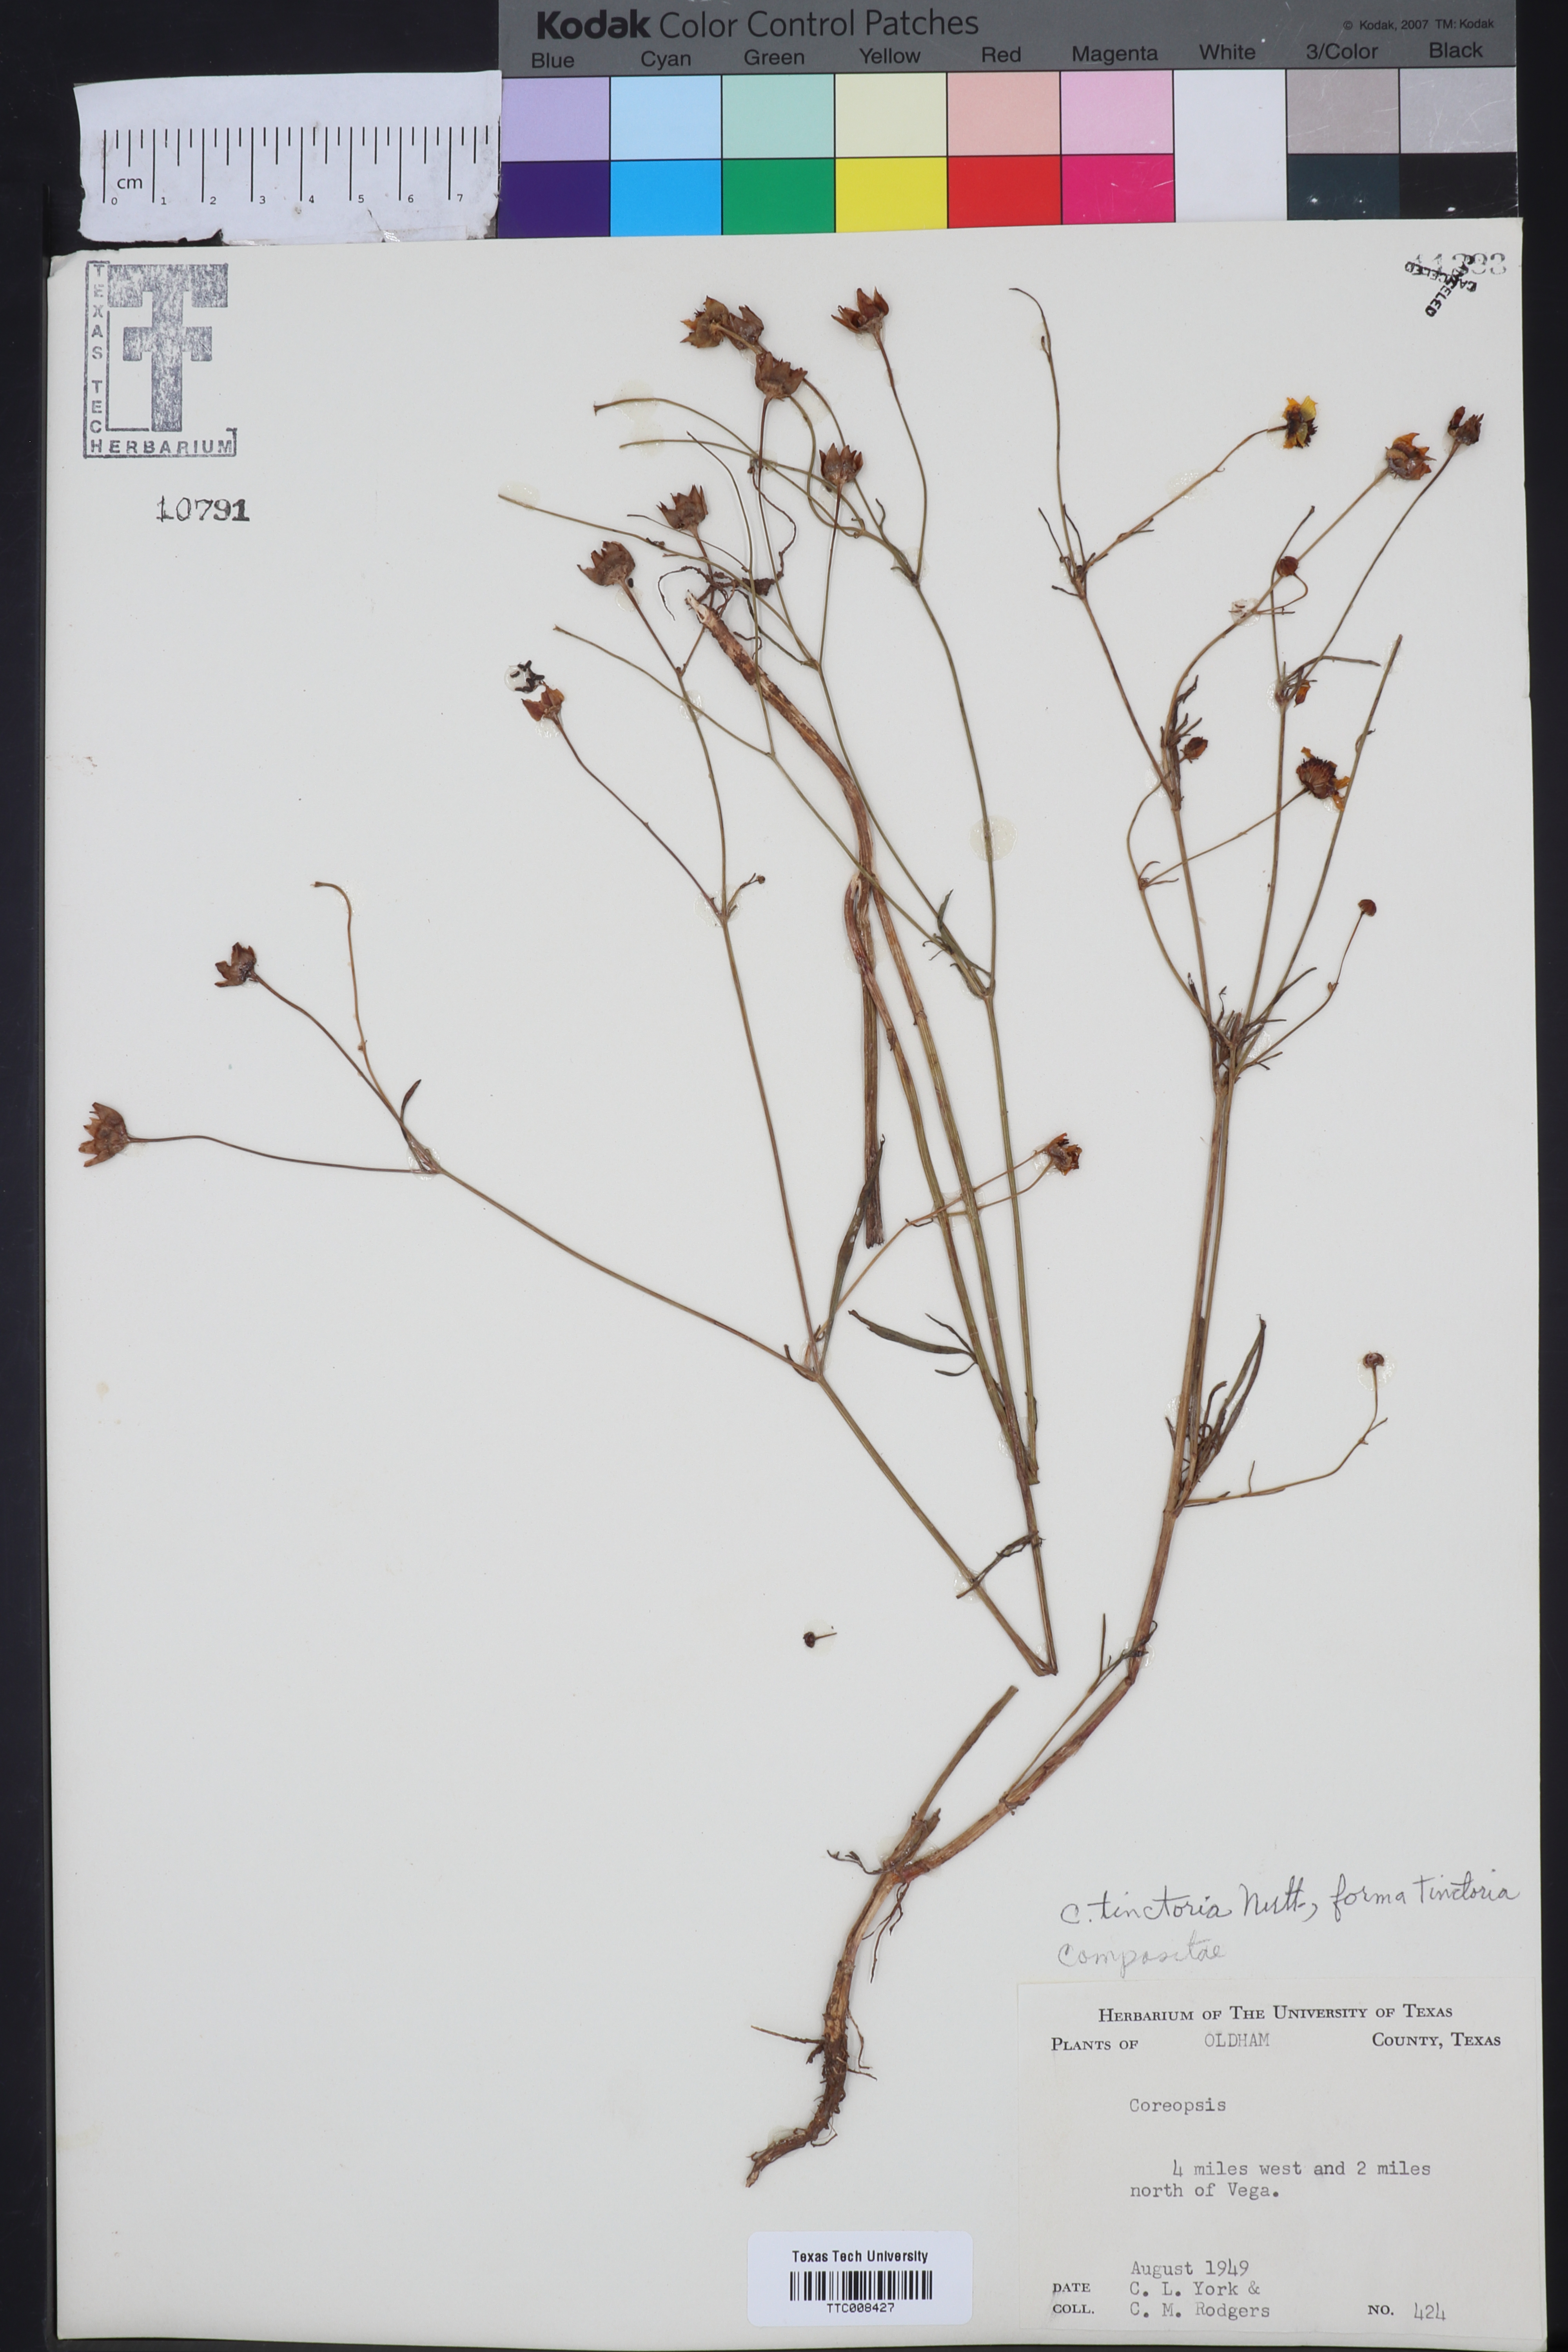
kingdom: Plantae
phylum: Tracheophyta
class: Magnoliopsida
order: Asterales
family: Asteraceae
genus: Coreopsis
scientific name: Coreopsis tinctoria
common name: Garden tickseed
